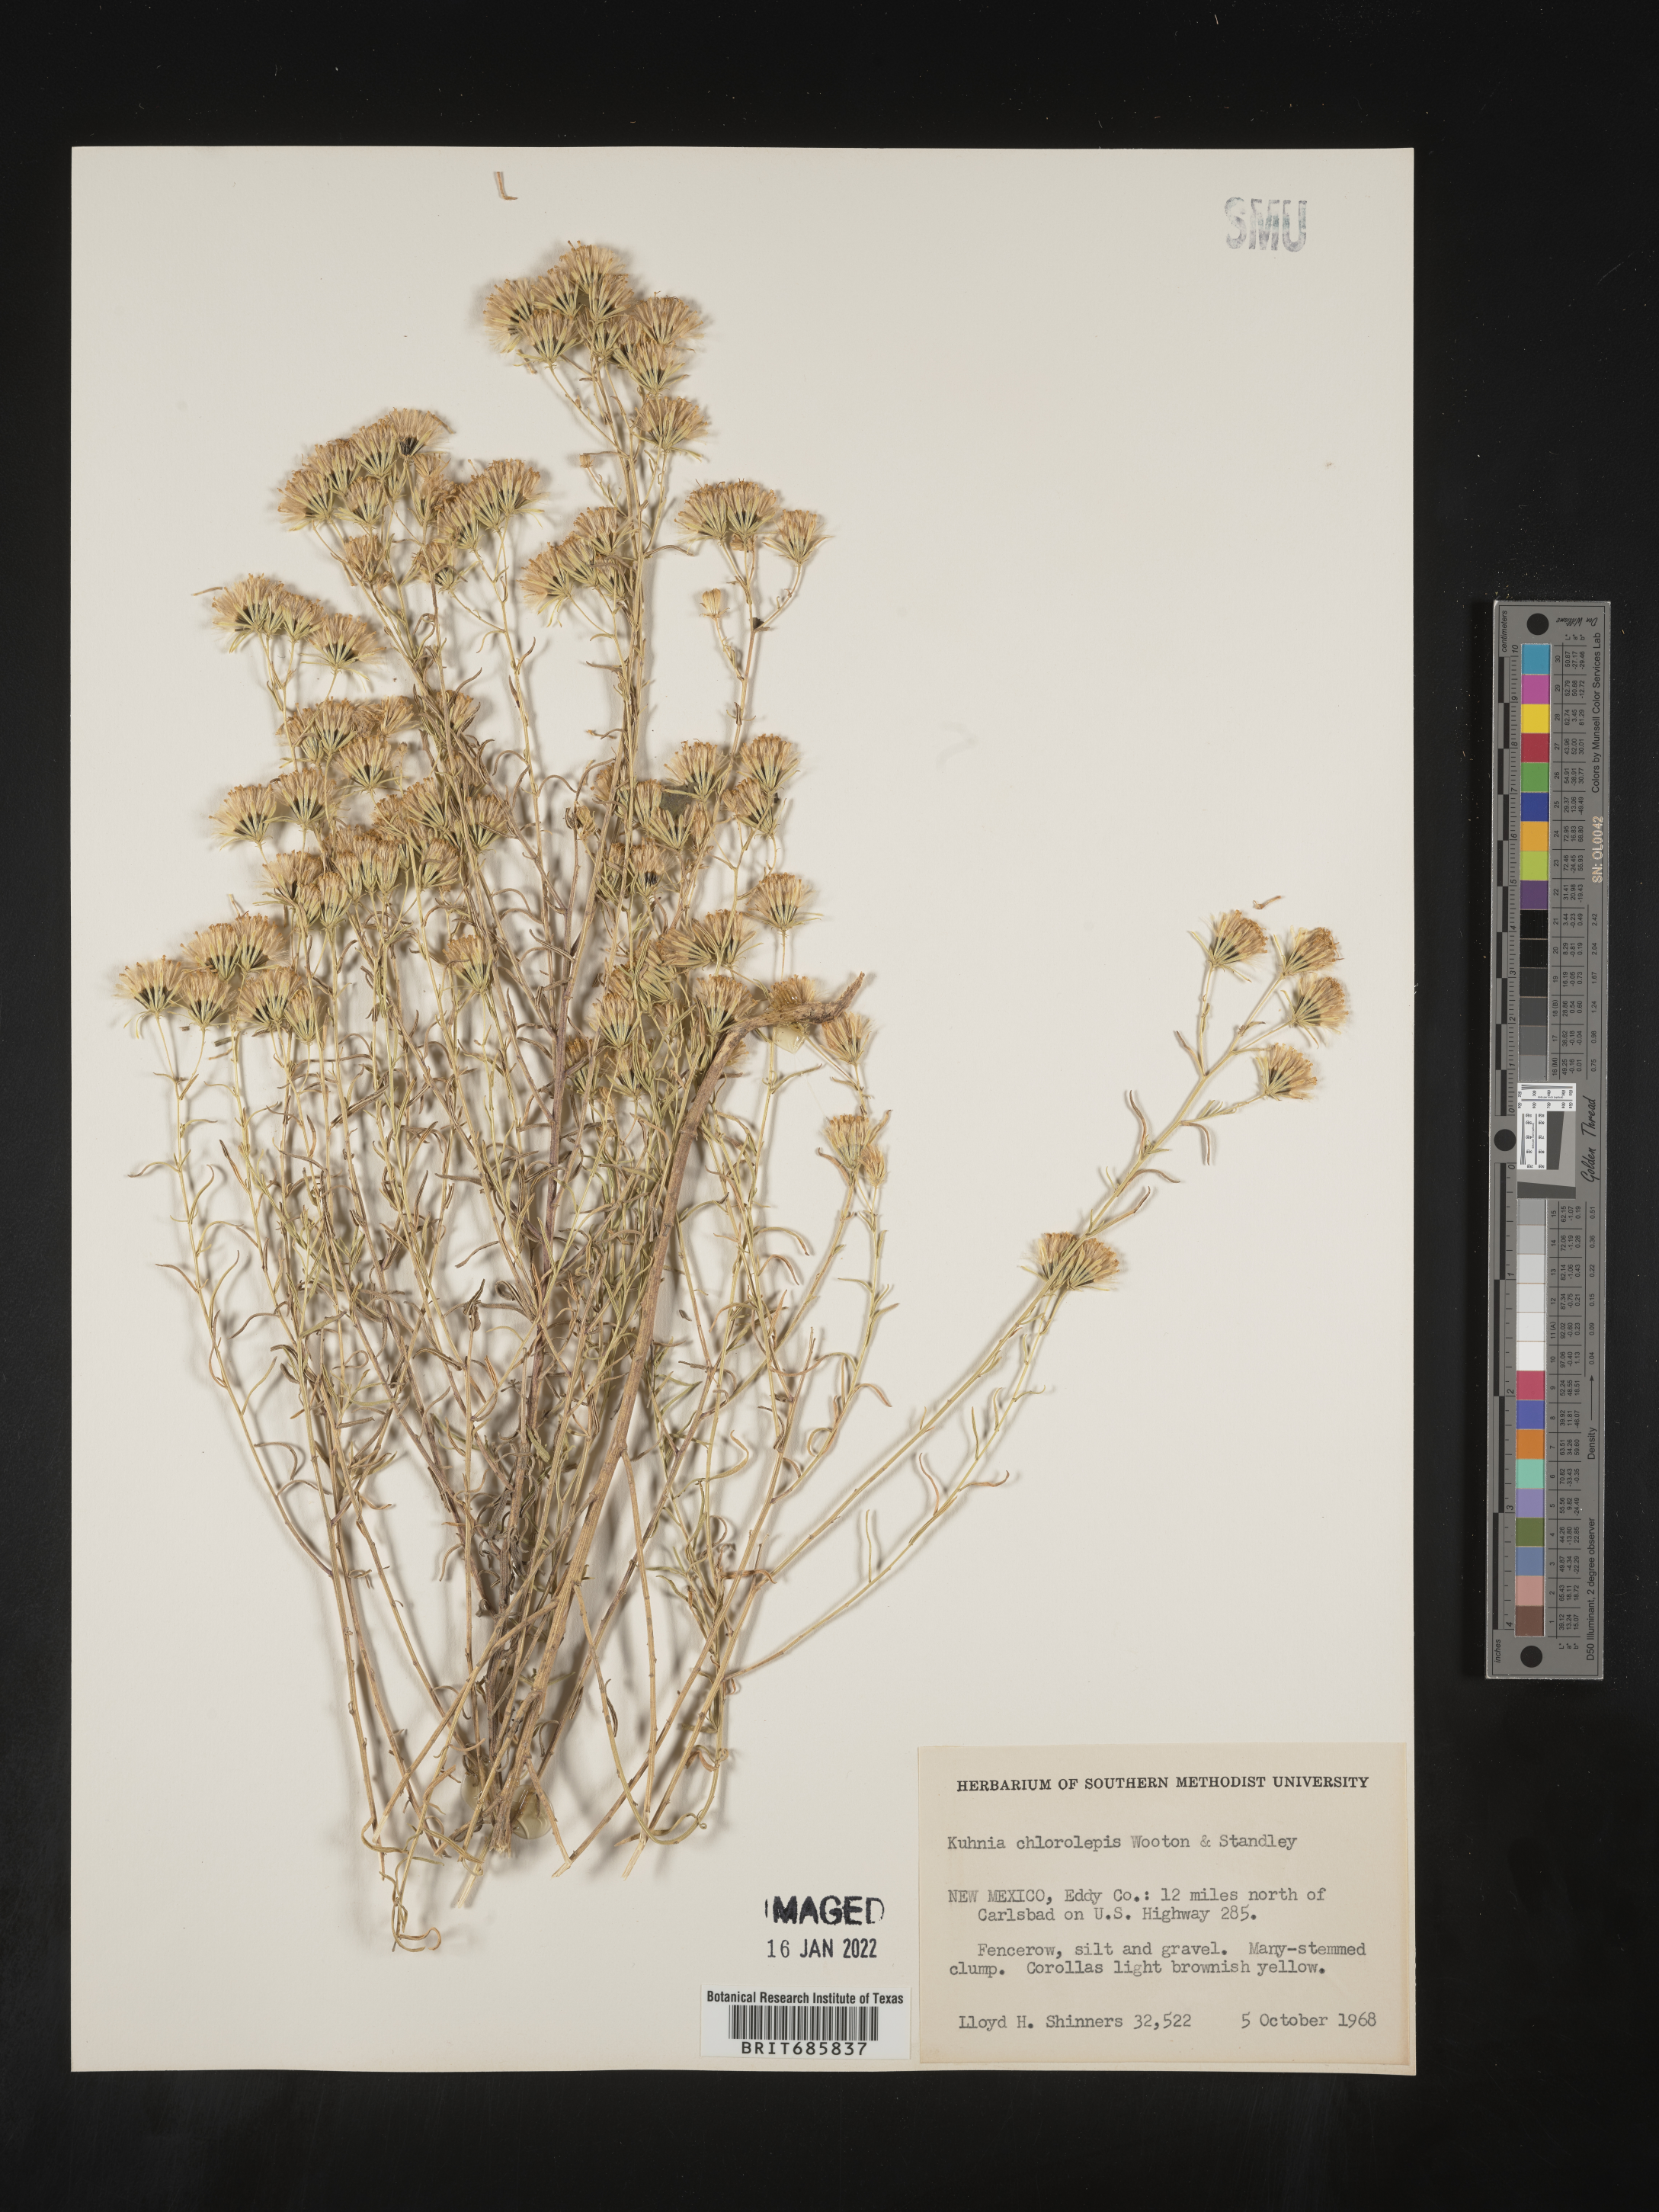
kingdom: Plantae
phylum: Tracheophyta
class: Magnoliopsida
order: Asterales
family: Asteraceae
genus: Brickellia
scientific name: Brickellia leptophylla
